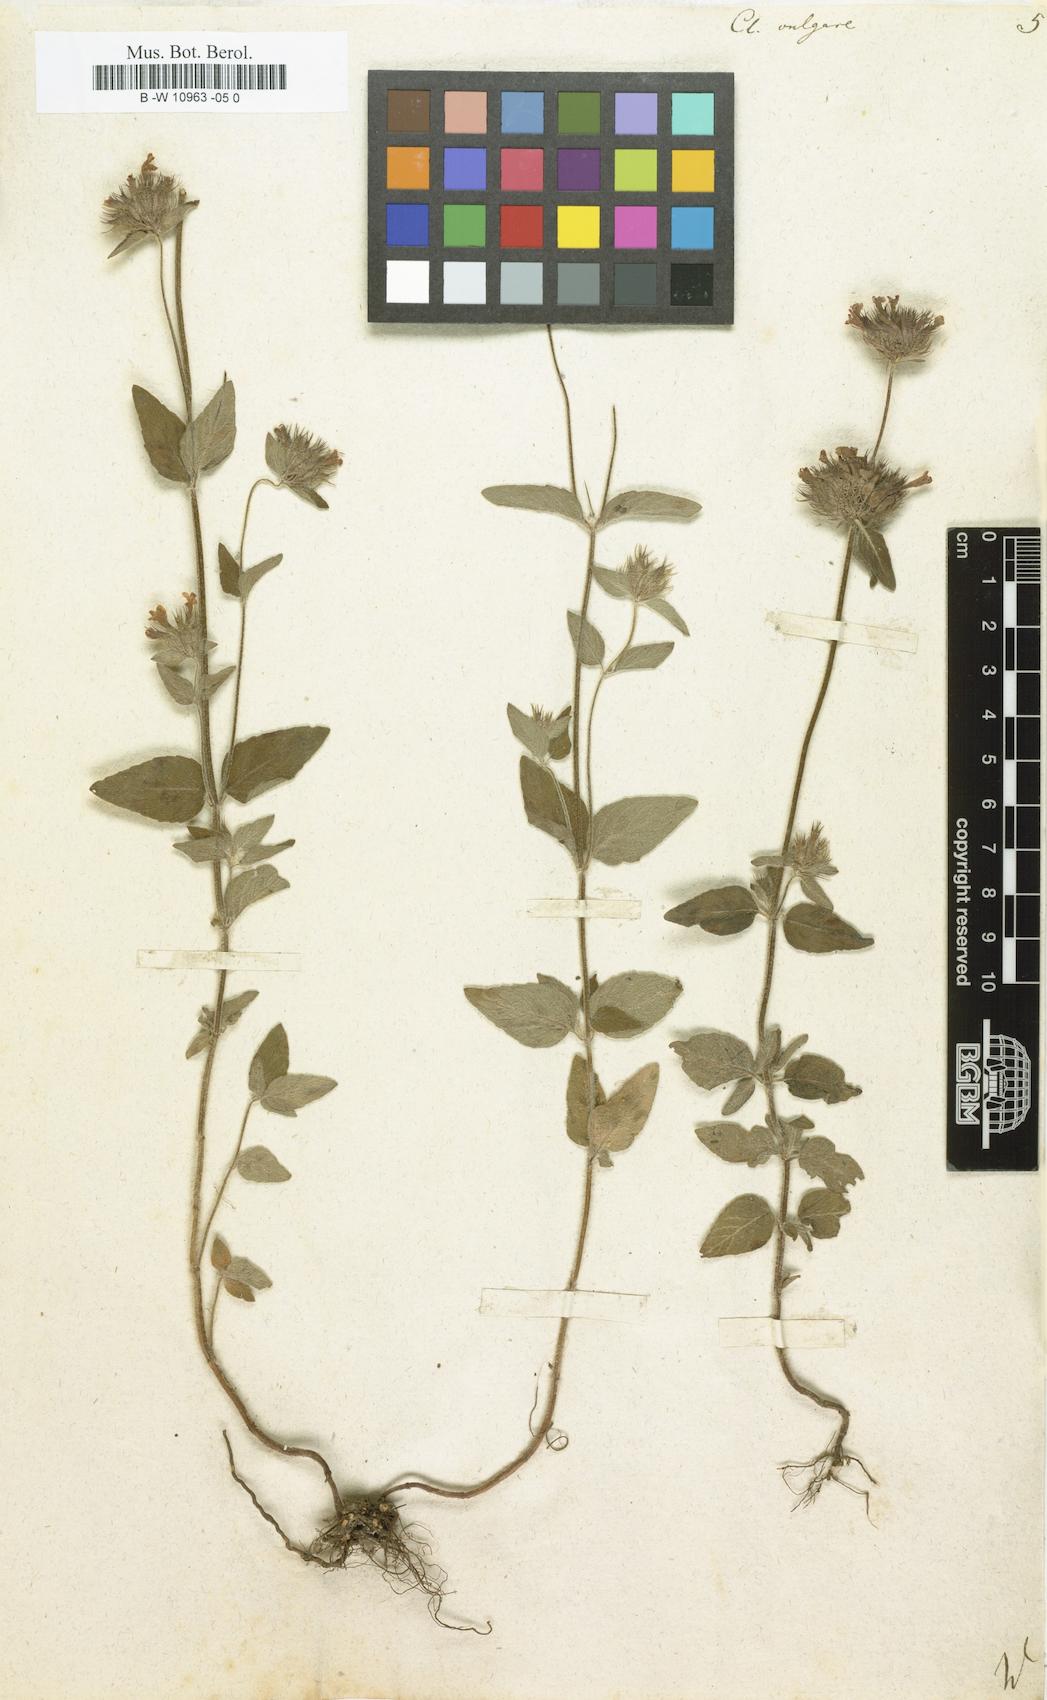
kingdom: Plantae
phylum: Tracheophyta
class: Magnoliopsida
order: Lamiales
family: Lamiaceae
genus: Clinopodium
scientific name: Clinopodium vulgare
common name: Wild basil
